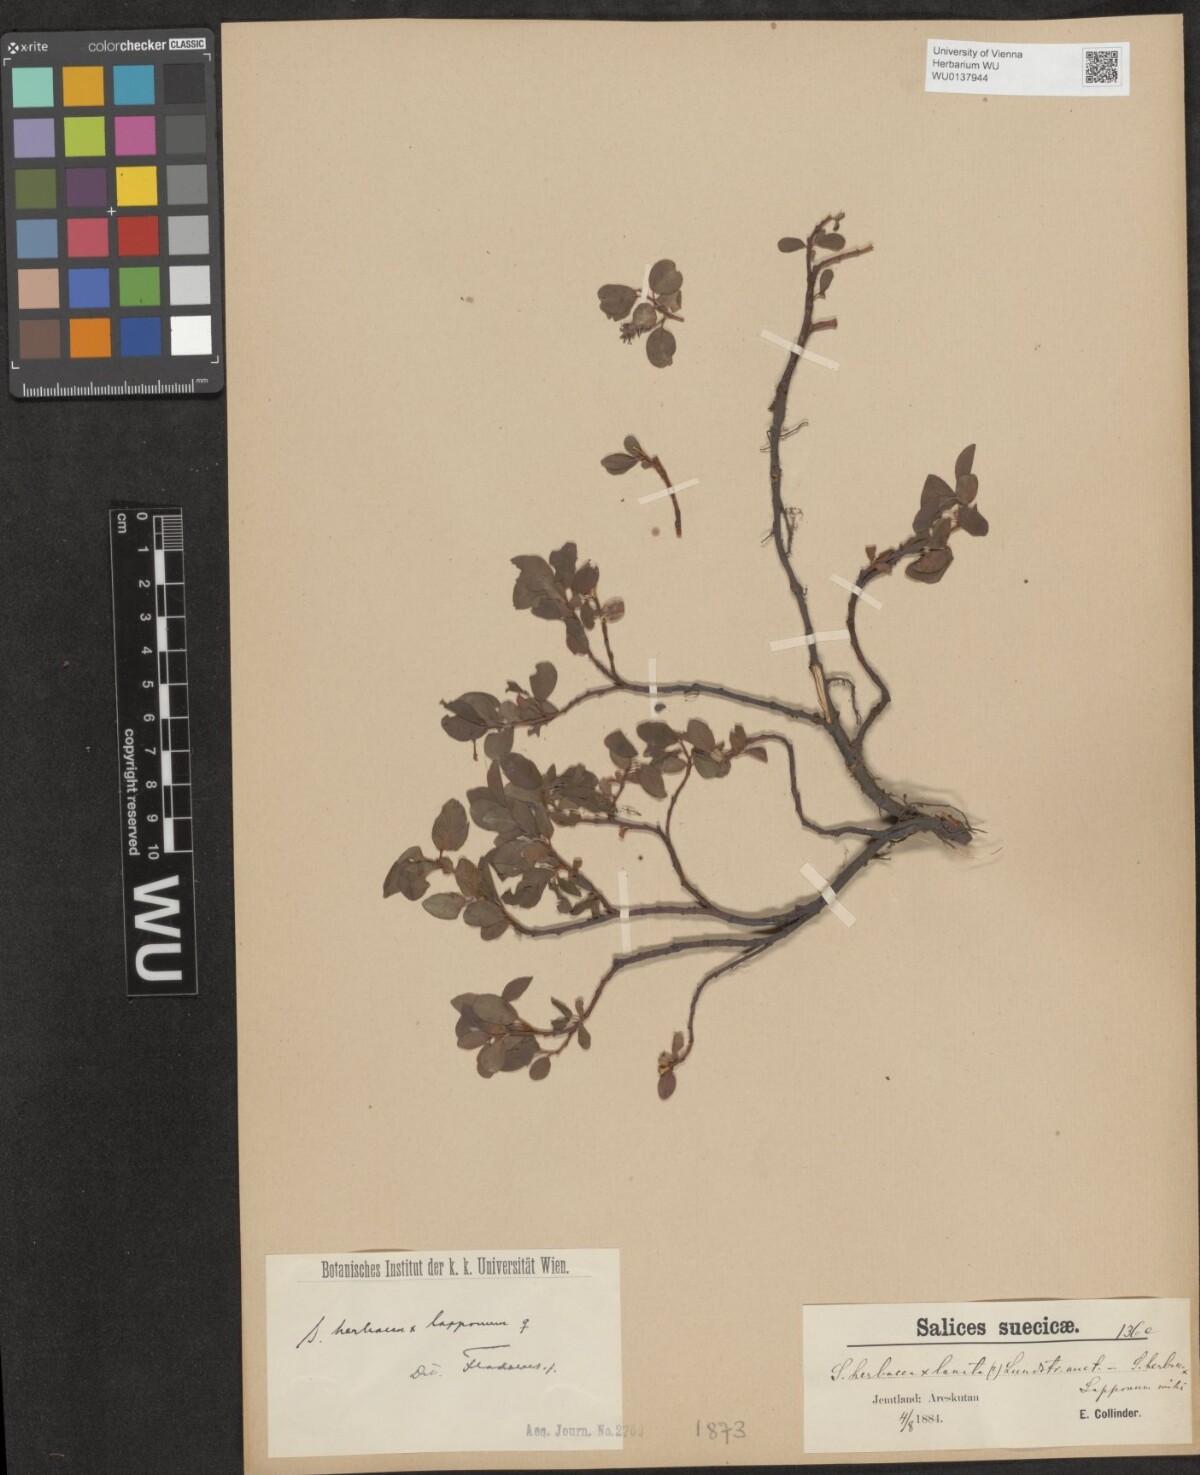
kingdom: Plantae
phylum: Tracheophyta
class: Magnoliopsida
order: Malpighiales
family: Salicaceae
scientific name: Salicaceae
